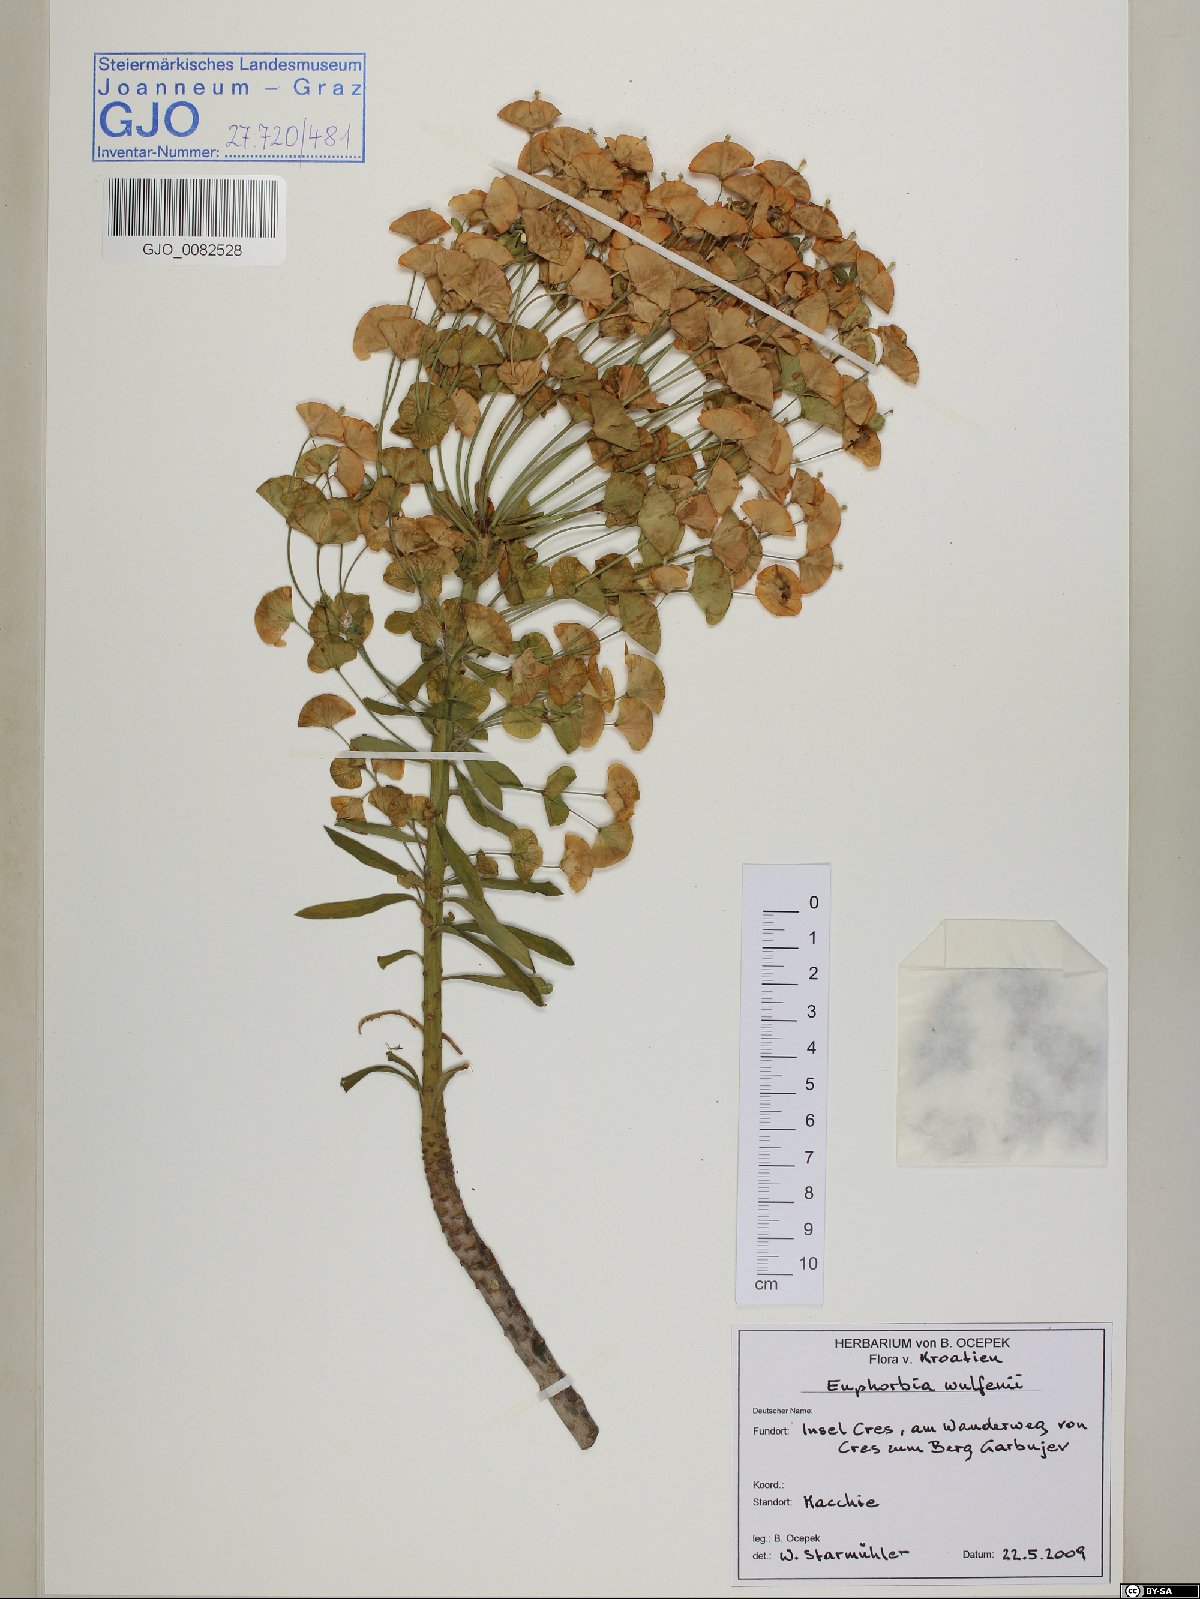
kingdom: Plantae
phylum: Tracheophyta
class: Magnoliopsida
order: Malpighiales
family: Euphorbiaceae
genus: Euphorbia
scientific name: Euphorbia characias
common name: Mediterranean spurge
